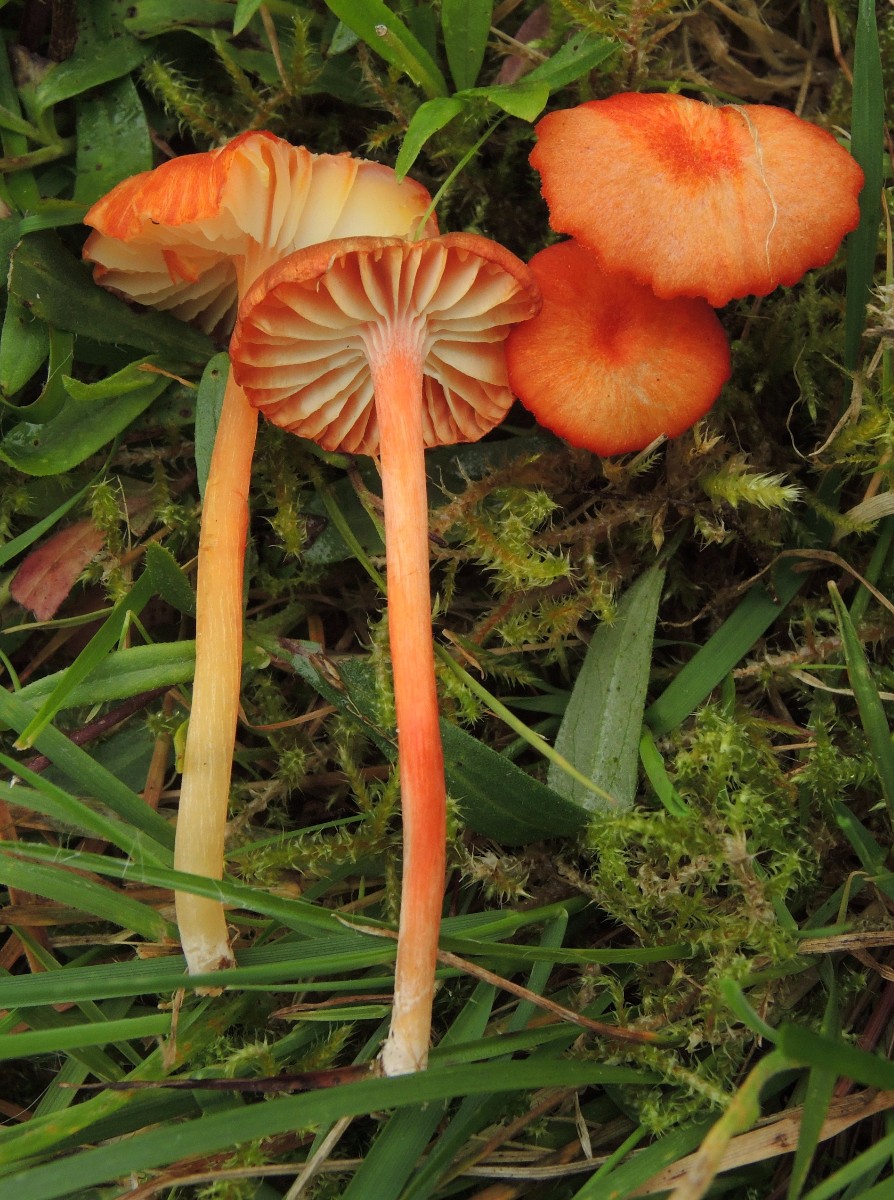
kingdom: Fungi
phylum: Basidiomycota
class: Agaricomycetes
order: Agaricales
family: Hygrophoraceae
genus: Hygrocybe
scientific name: Hygrocybe helobia
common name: hvidløgs-vokshat
